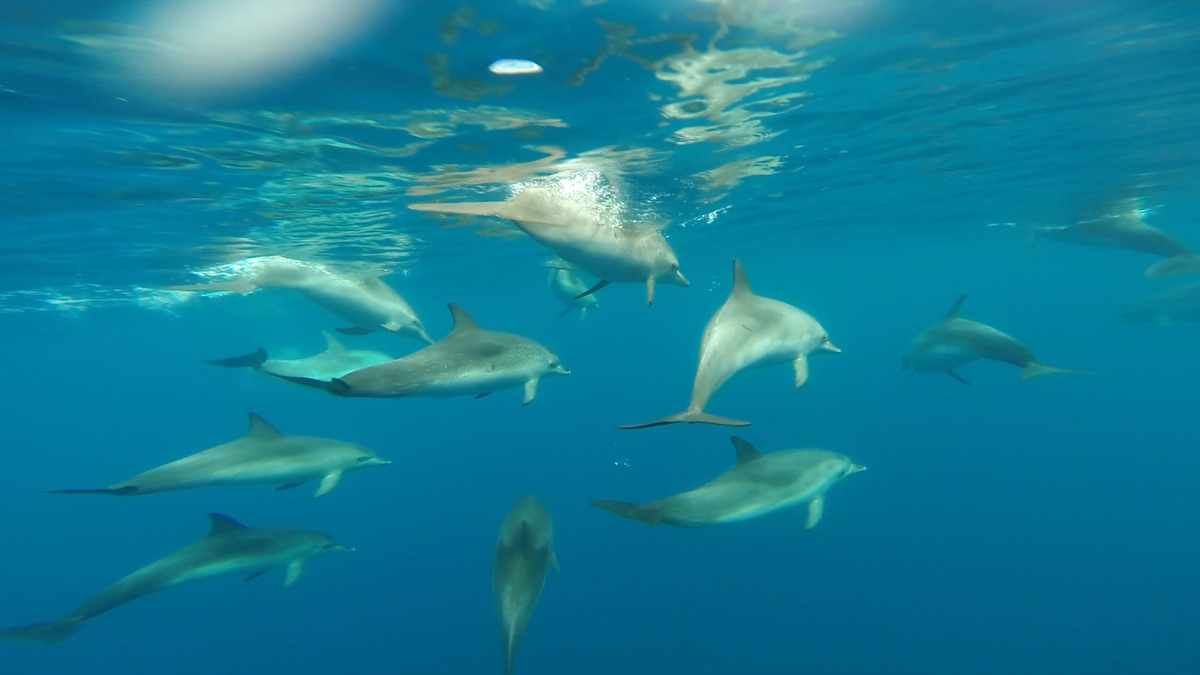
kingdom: Animalia
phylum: Chordata
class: Mammalia
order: Cetacea
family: Delphinidae
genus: Stenella
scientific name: Stenella frontalis
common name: Atlantic spotted dolphin
